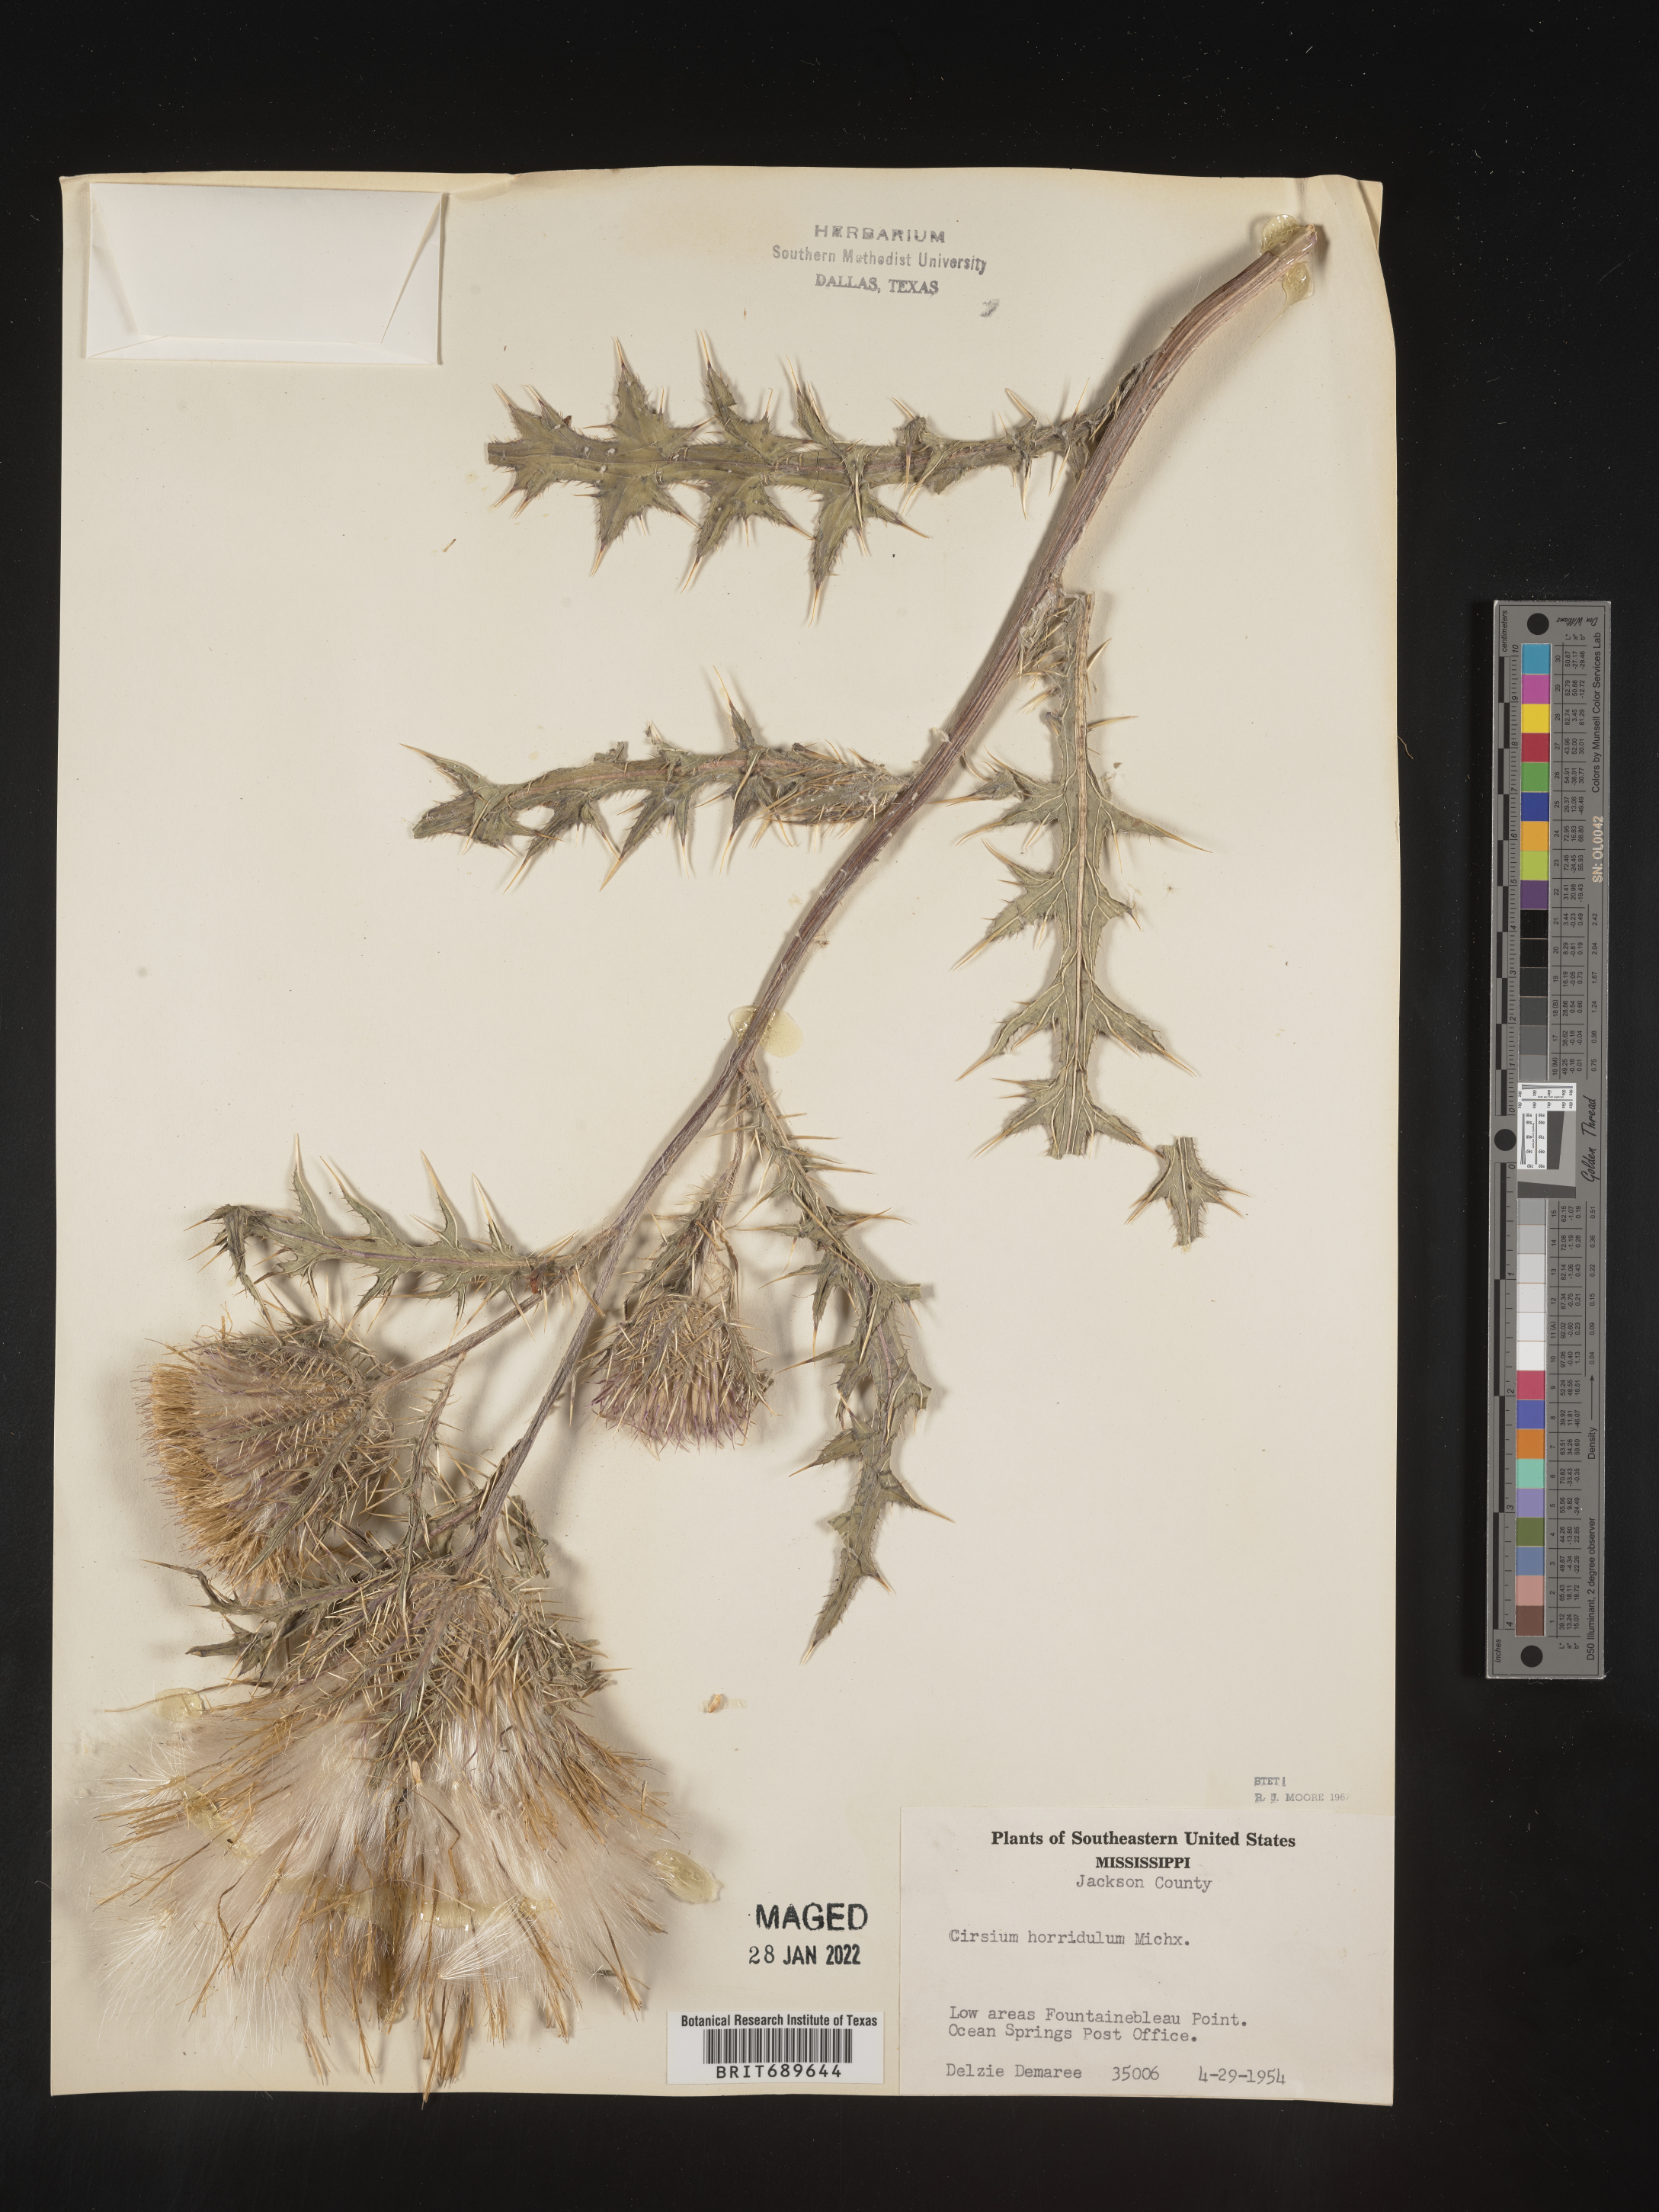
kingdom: Plantae
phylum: Tracheophyta
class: Magnoliopsida
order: Asterales
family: Asteraceae
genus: Cirsium
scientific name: Cirsium horridulum
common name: Bristly thistle
